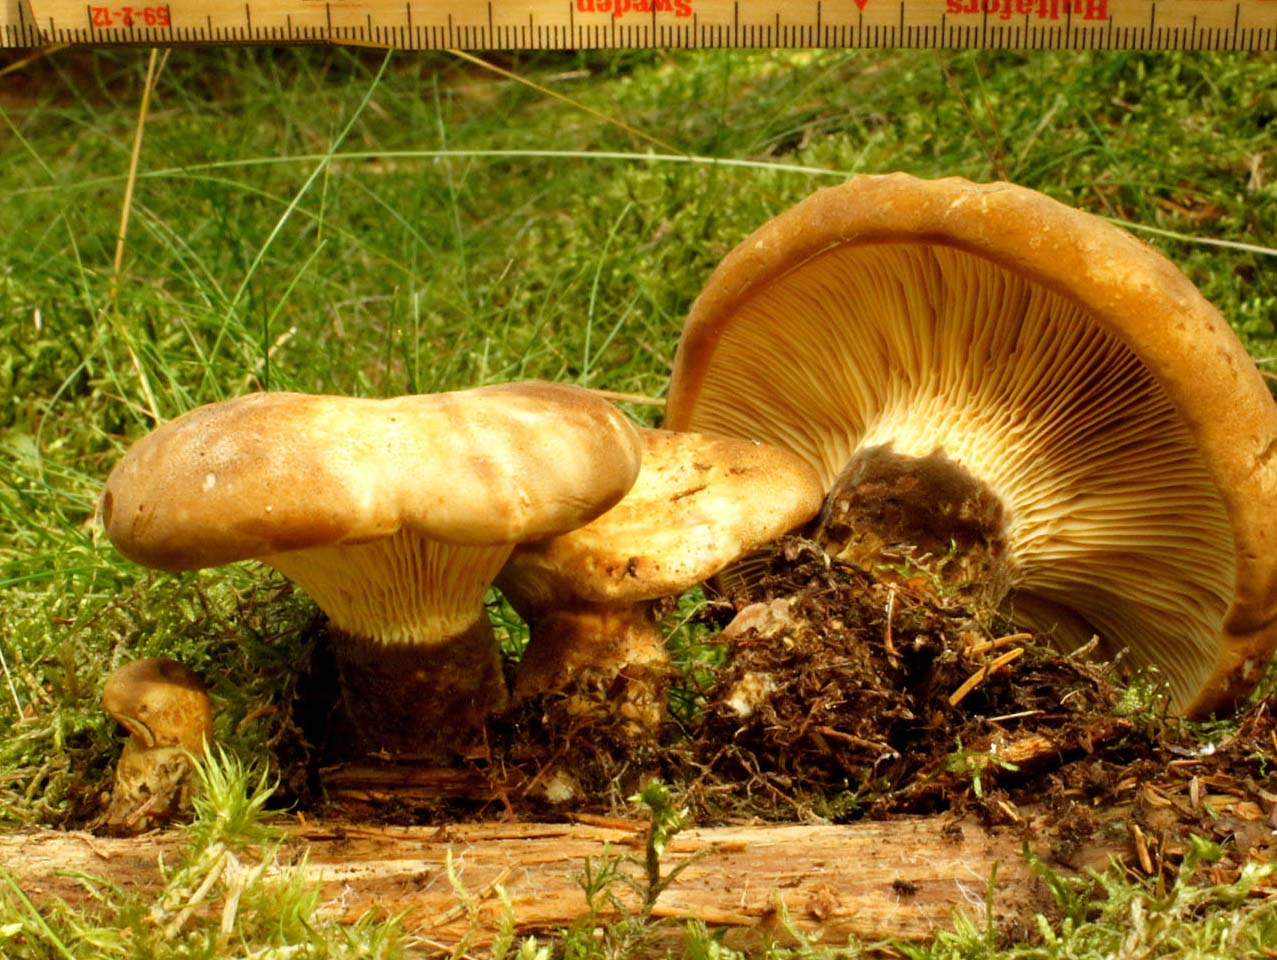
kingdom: Fungi
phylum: Basidiomycota
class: Agaricomycetes
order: Boletales
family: Tapinellaceae
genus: Tapinella
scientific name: Tapinella atrotomentosa
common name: sortfiltet viftesvamp
